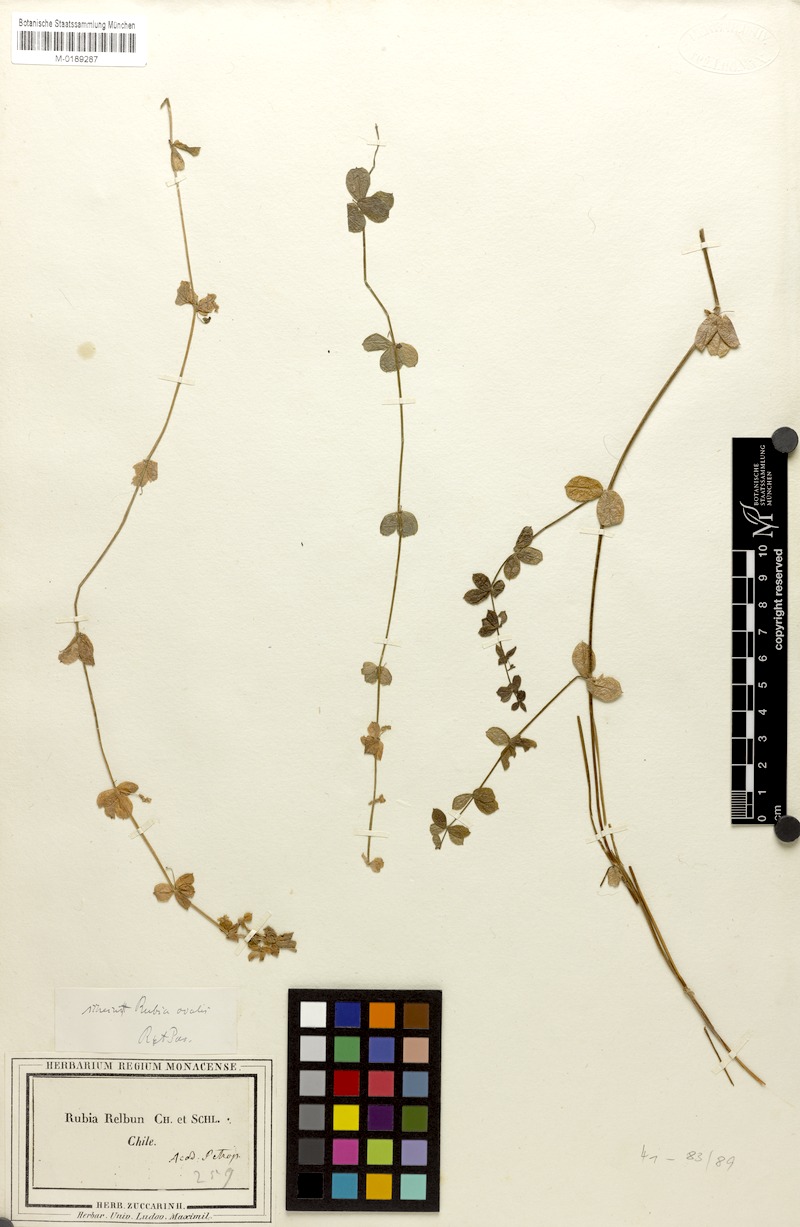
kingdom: Plantae
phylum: Tracheophyta
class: Magnoliopsida
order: Gentianales
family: Rubiaceae
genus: Galium
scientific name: Galium hypocarpium
